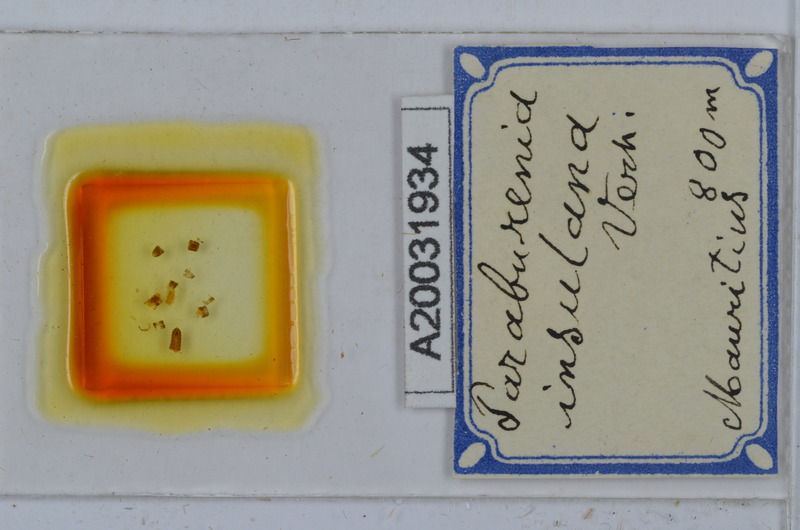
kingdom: Animalia
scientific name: Animalia
